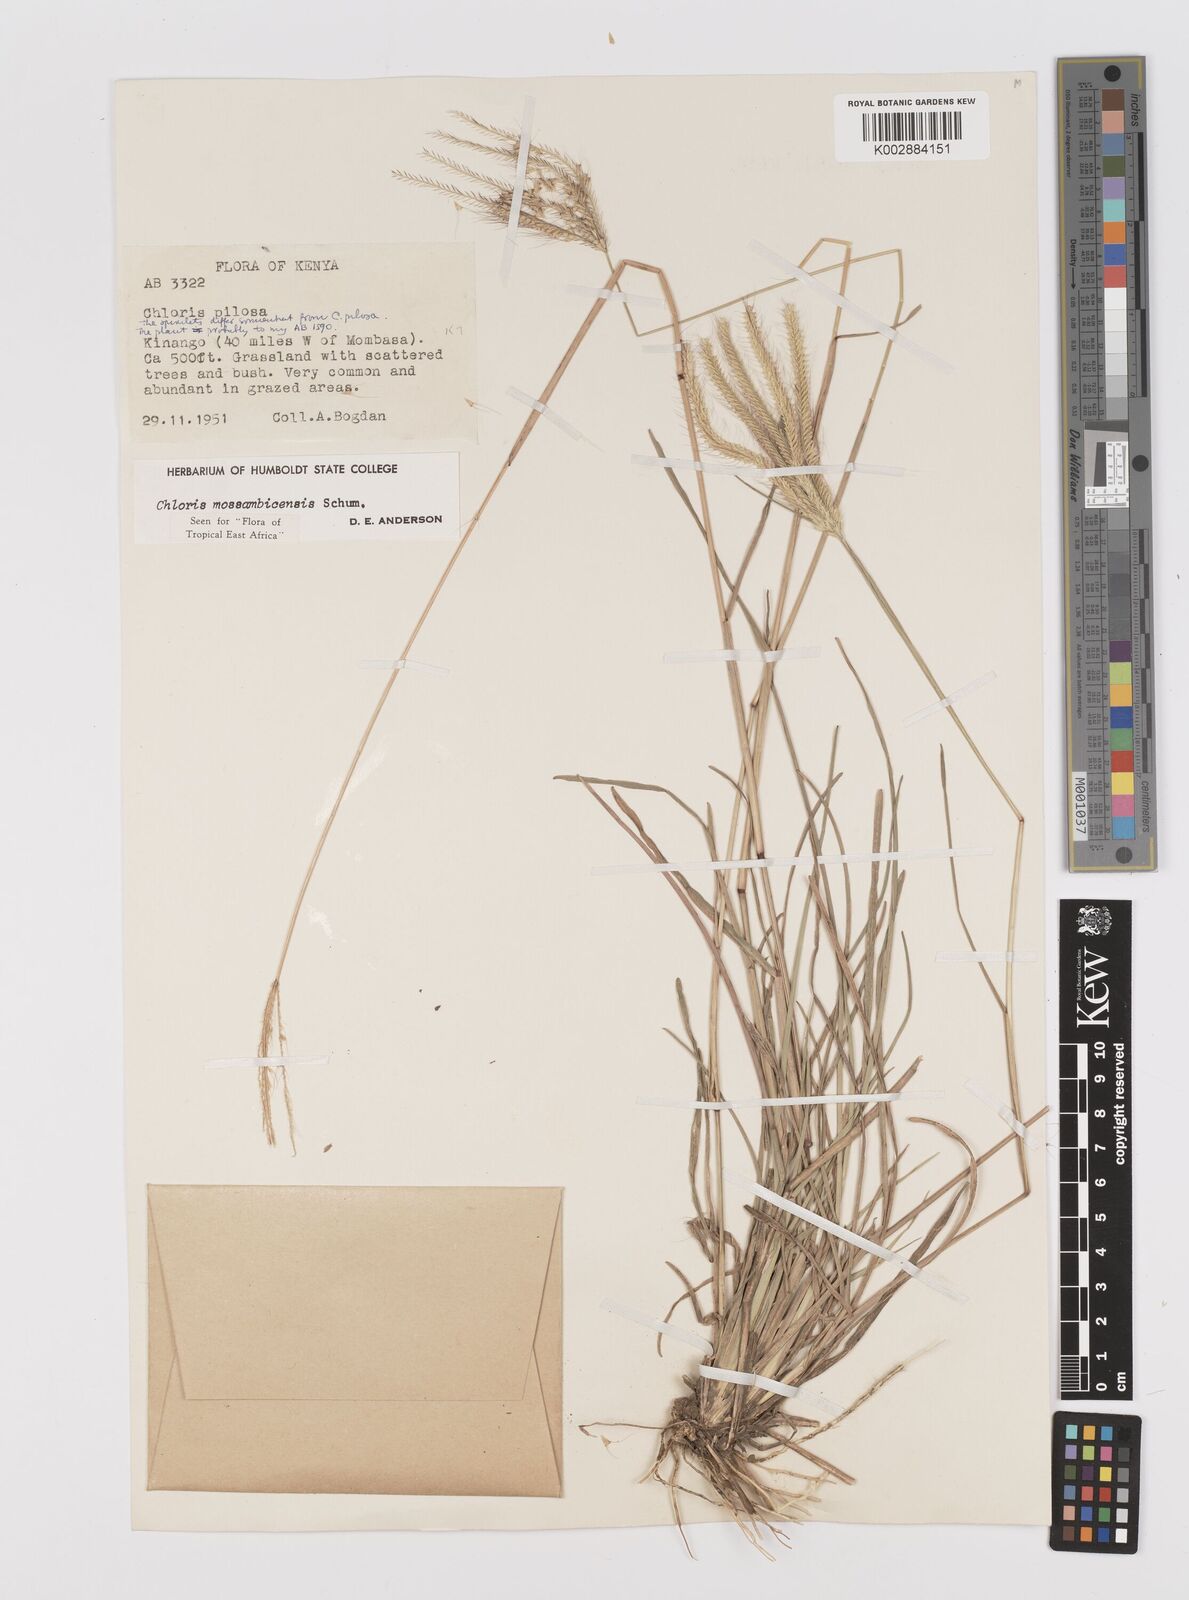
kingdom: Plantae
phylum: Tracheophyta
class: Liliopsida
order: Poales
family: Poaceae
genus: Chloris
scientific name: Chloris mossambicensis
